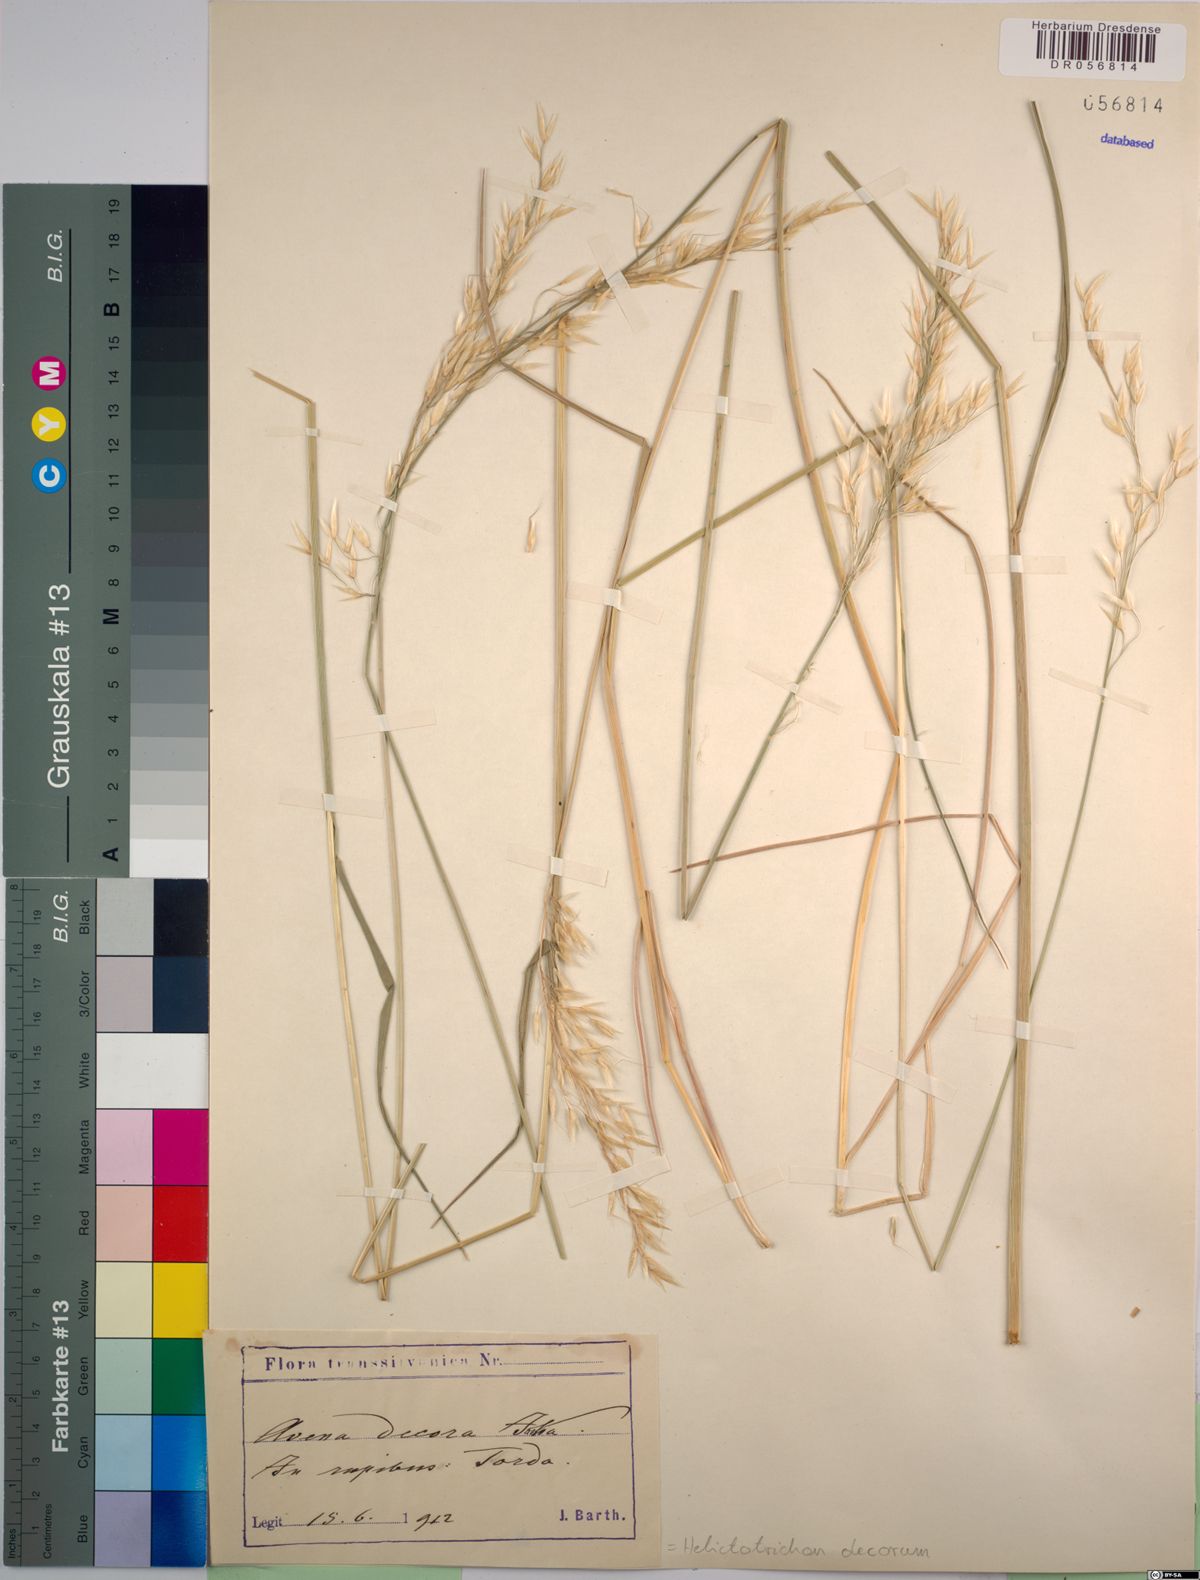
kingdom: Plantae
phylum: Tracheophyta
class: Liliopsida
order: Poales
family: Poaceae
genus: Helictotrichon
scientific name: Helictotrichon decorum
